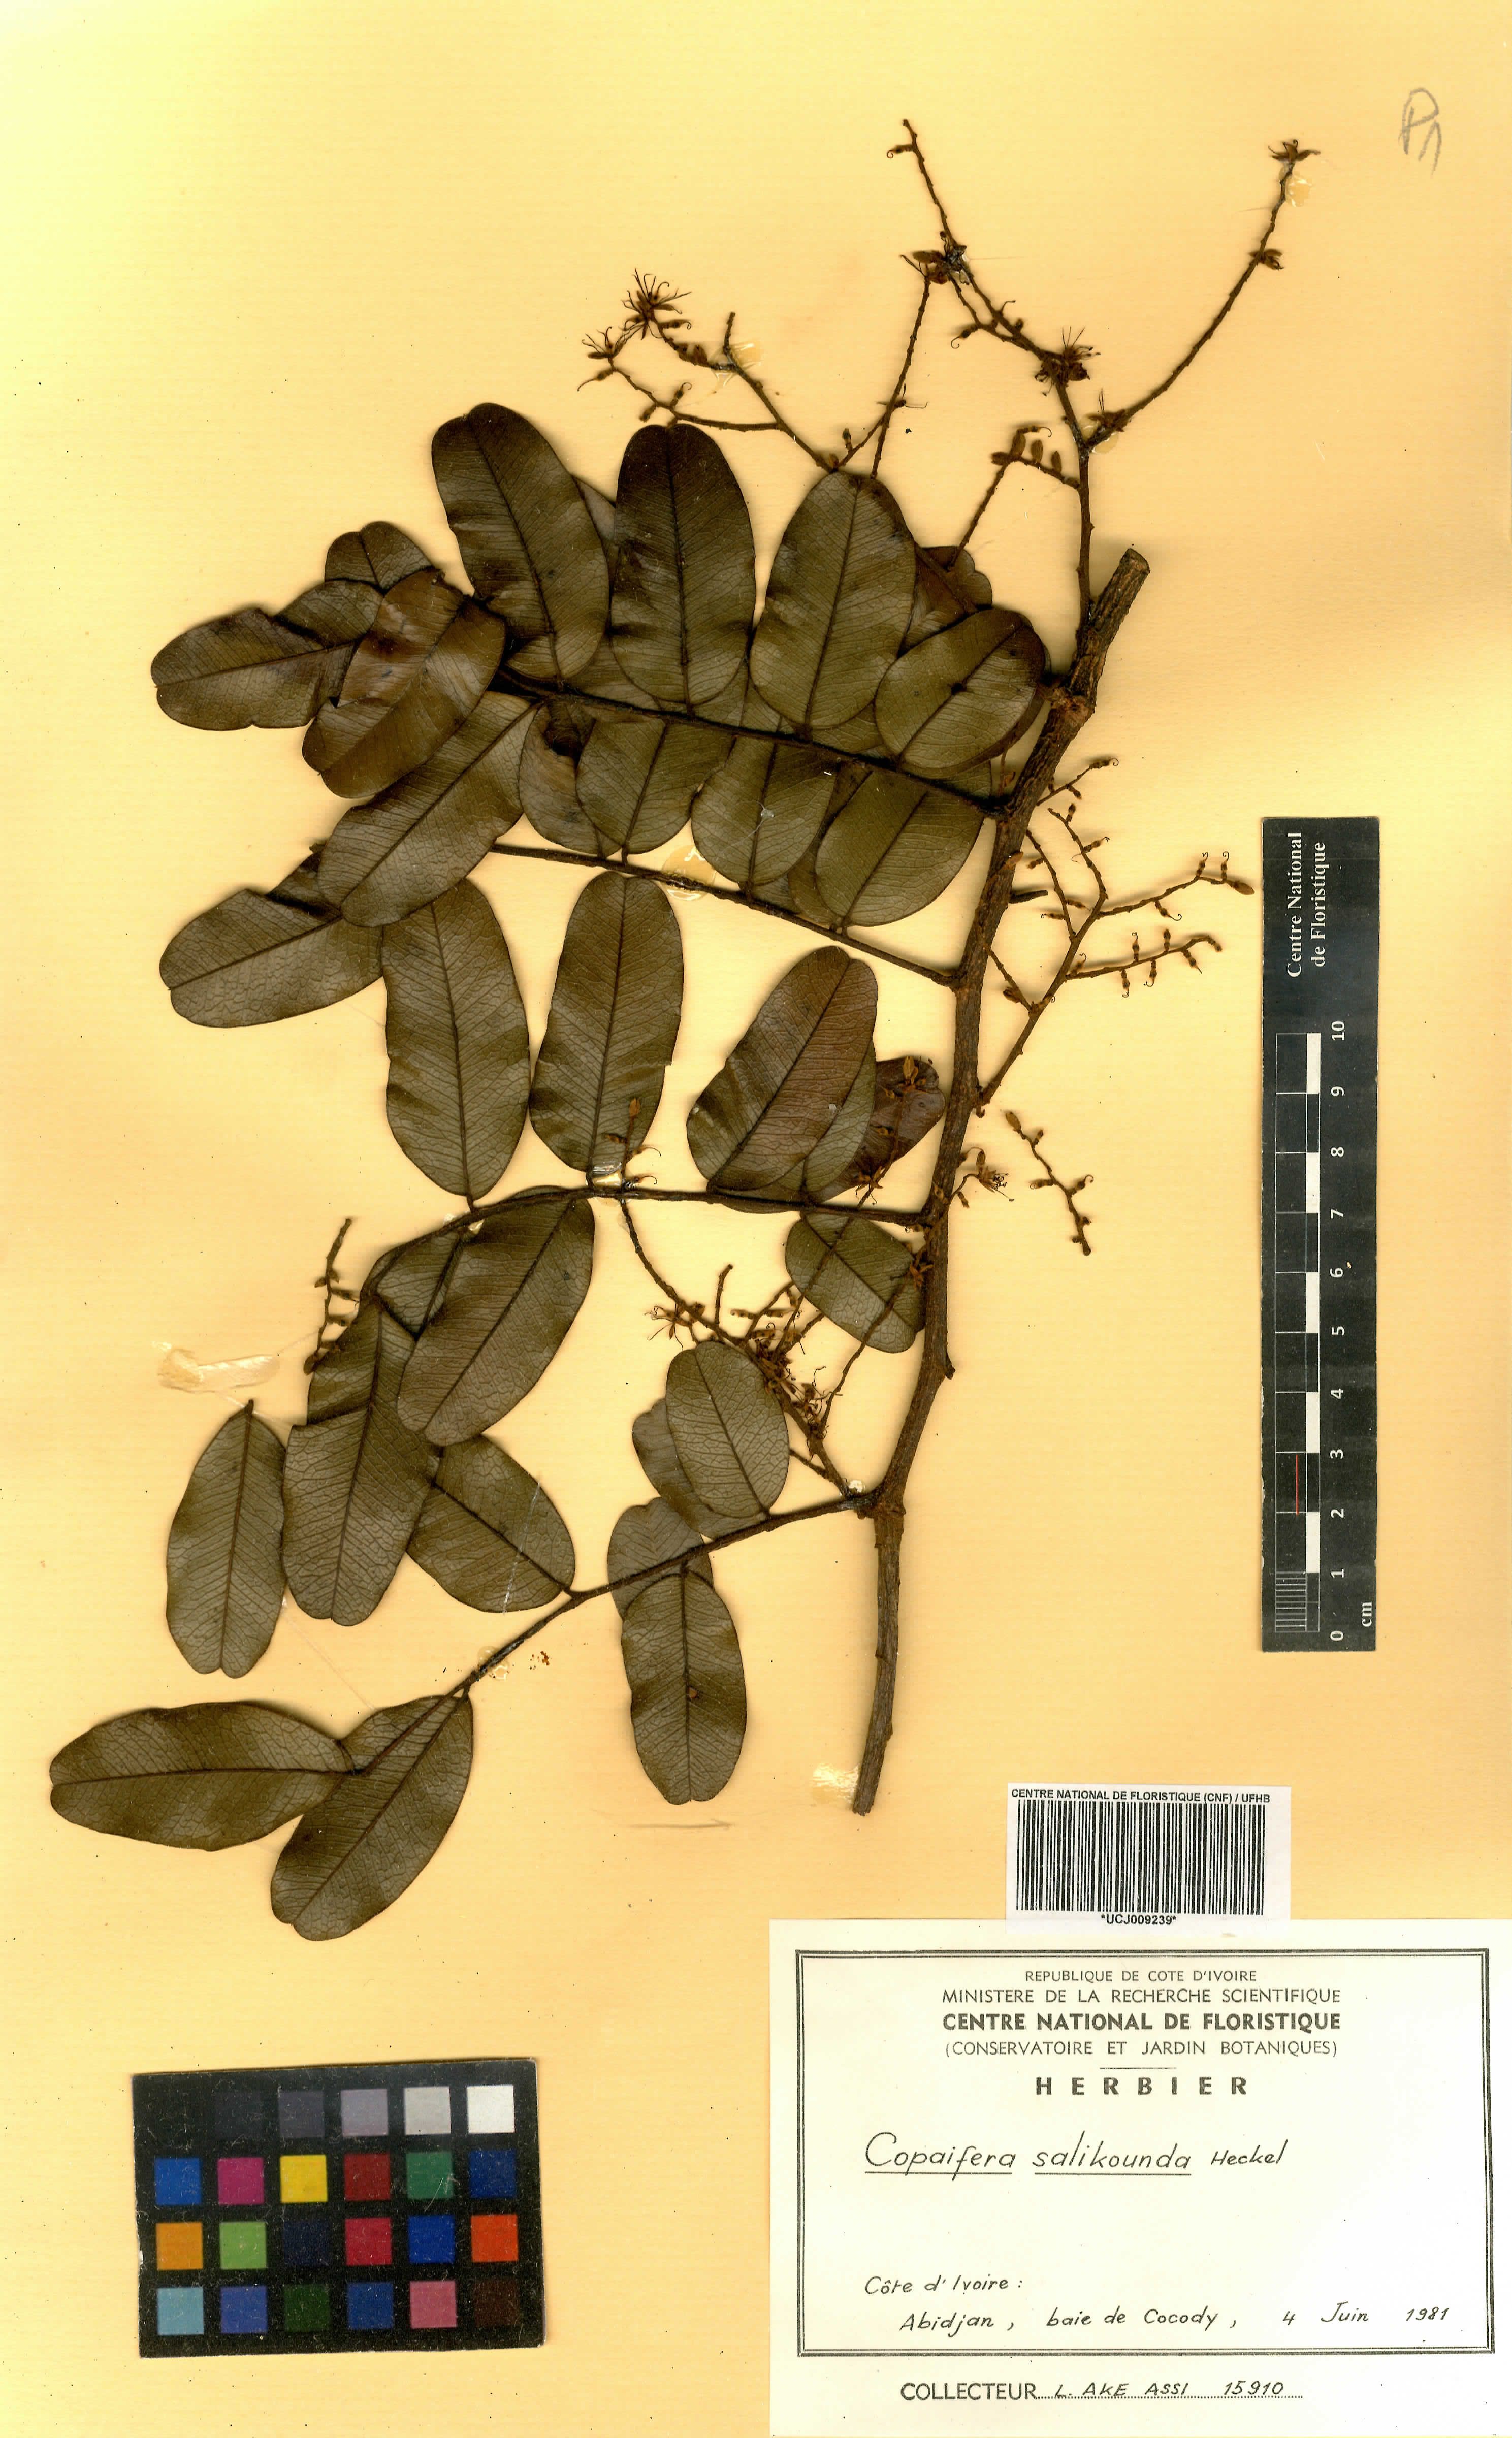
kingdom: Plantae
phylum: Tracheophyta
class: Magnoliopsida
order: Fabales
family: Fabaceae
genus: Copaifera
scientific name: Copaifera salikounda
